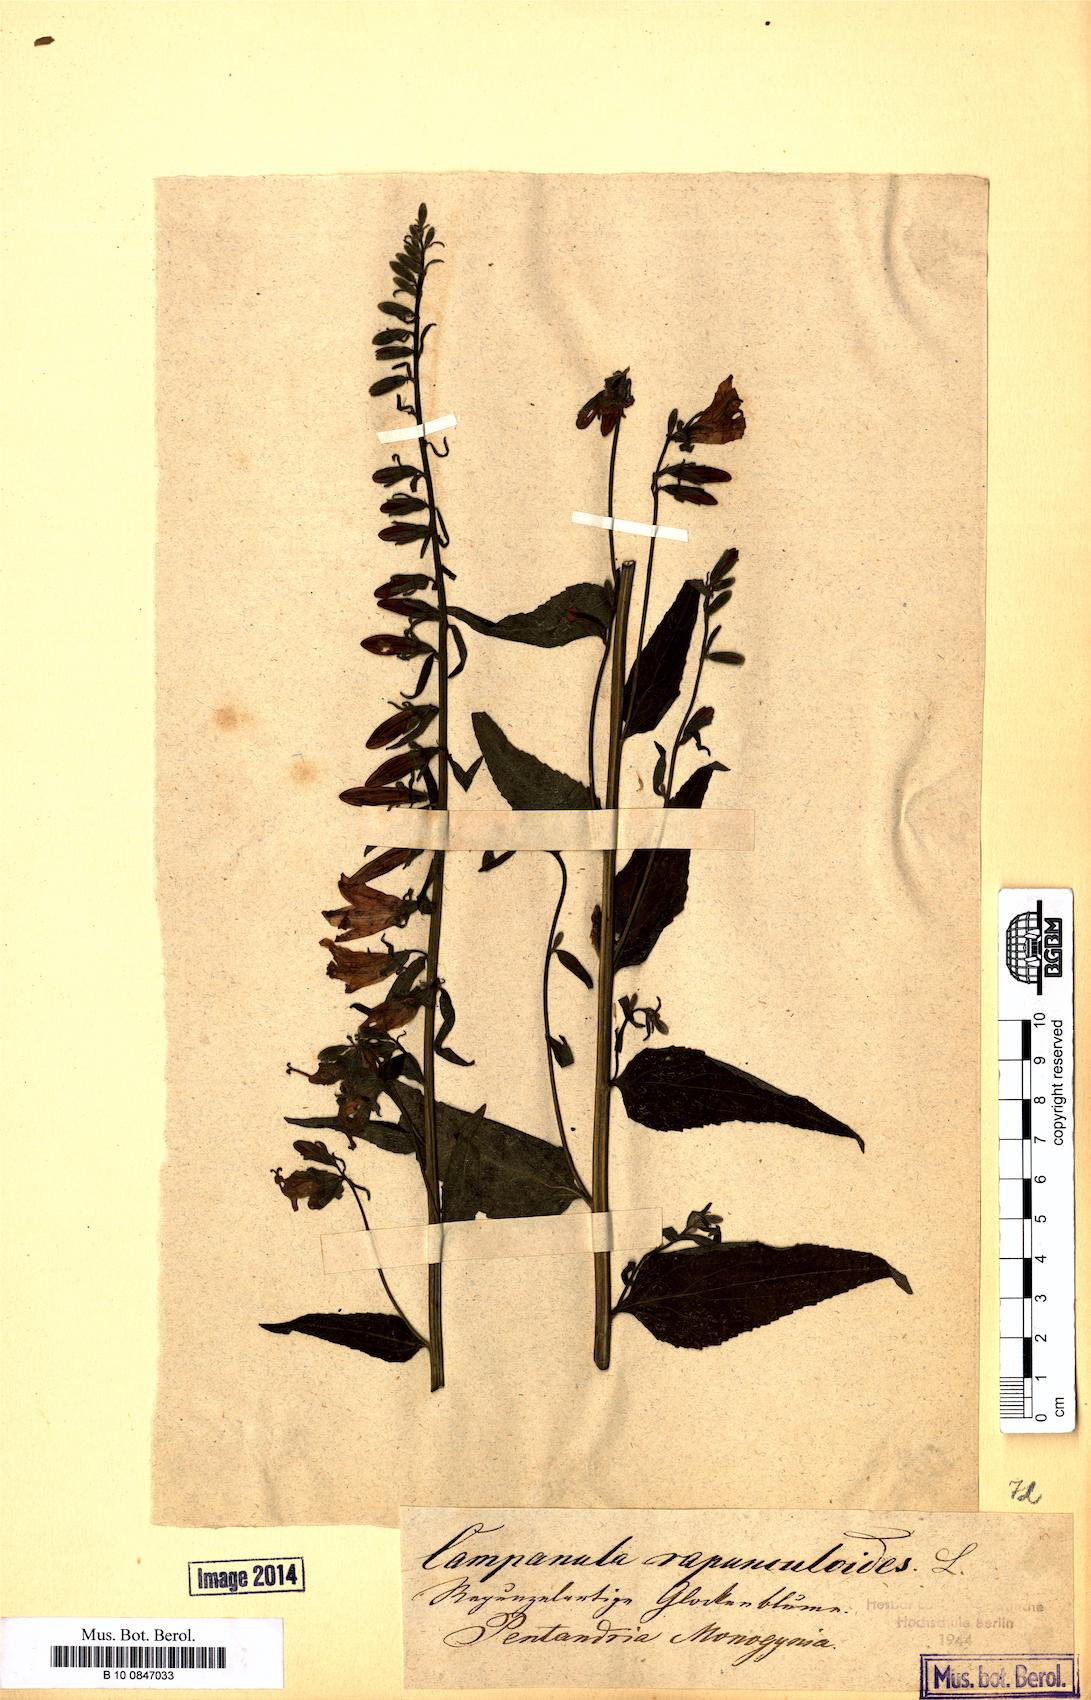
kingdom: Plantae
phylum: Tracheophyta
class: Magnoliopsida
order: Asterales
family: Campanulaceae
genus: Campanula
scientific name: Campanula rapunculoides
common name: Creeping bellflower
